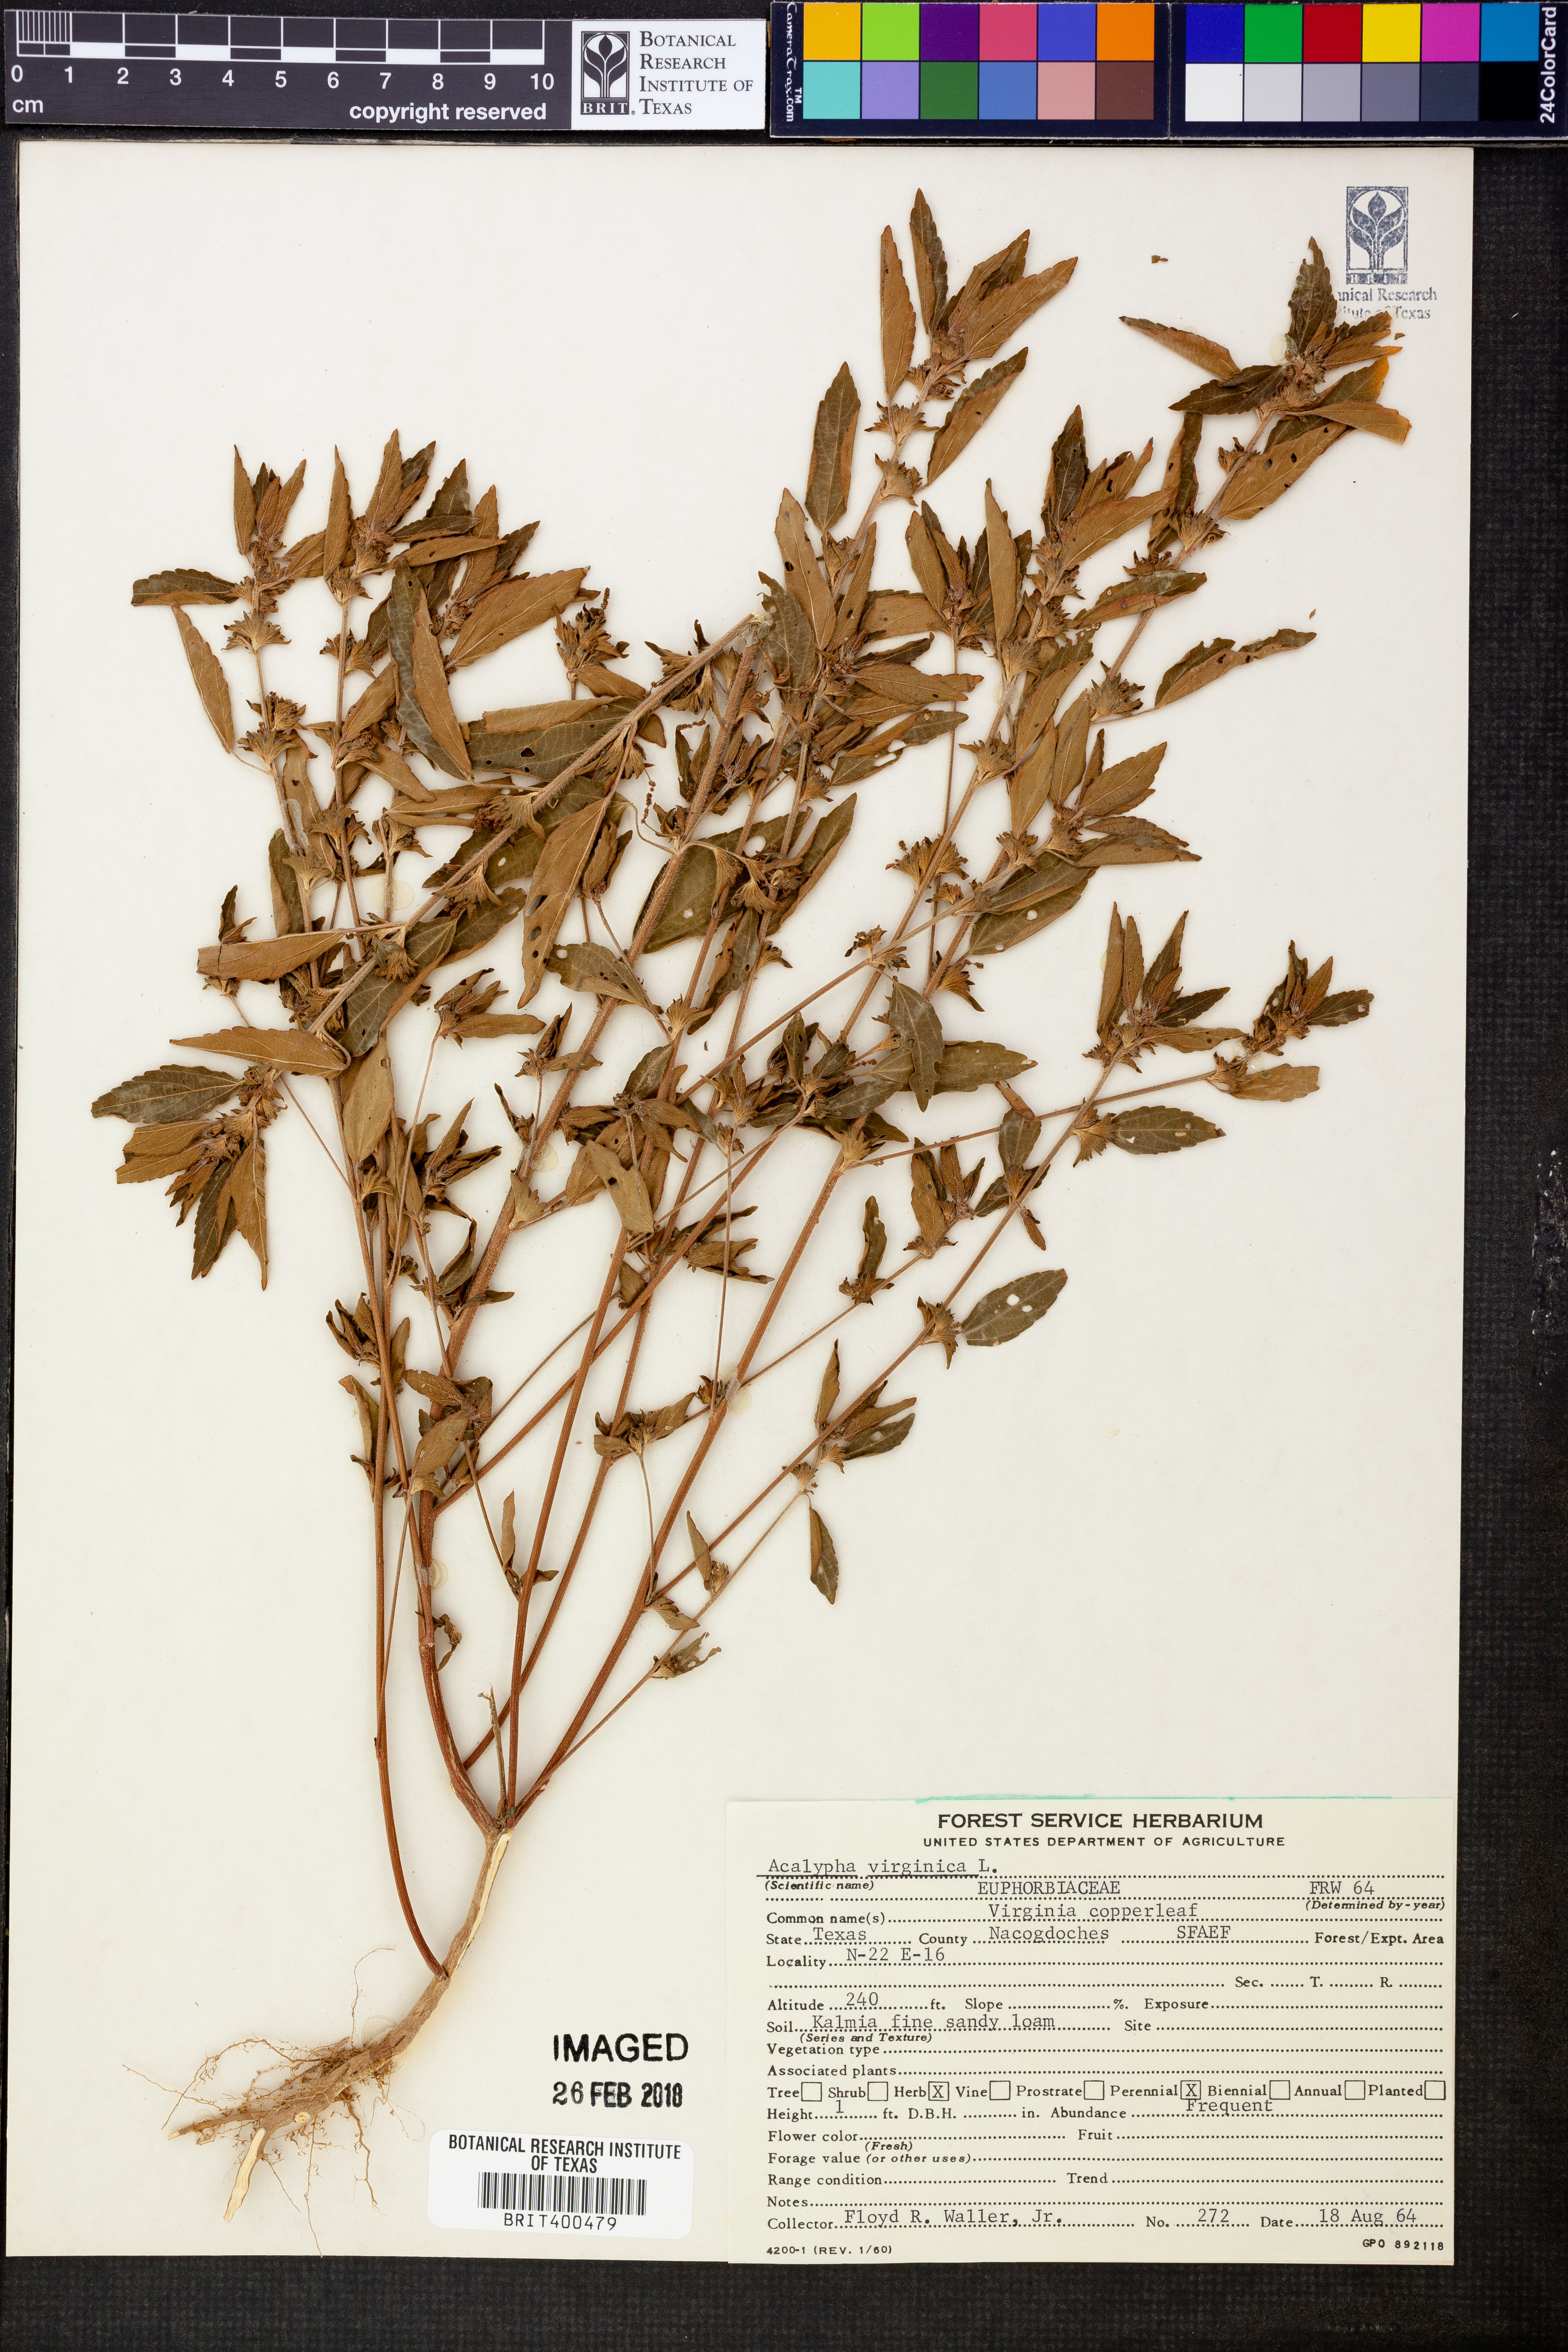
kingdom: Plantae
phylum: Tracheophyta
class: Magnoliopsida
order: Malpighiales
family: Euphorbiaceae
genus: Acalypha
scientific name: Acalypha virginica
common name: Virginia copperleaf
